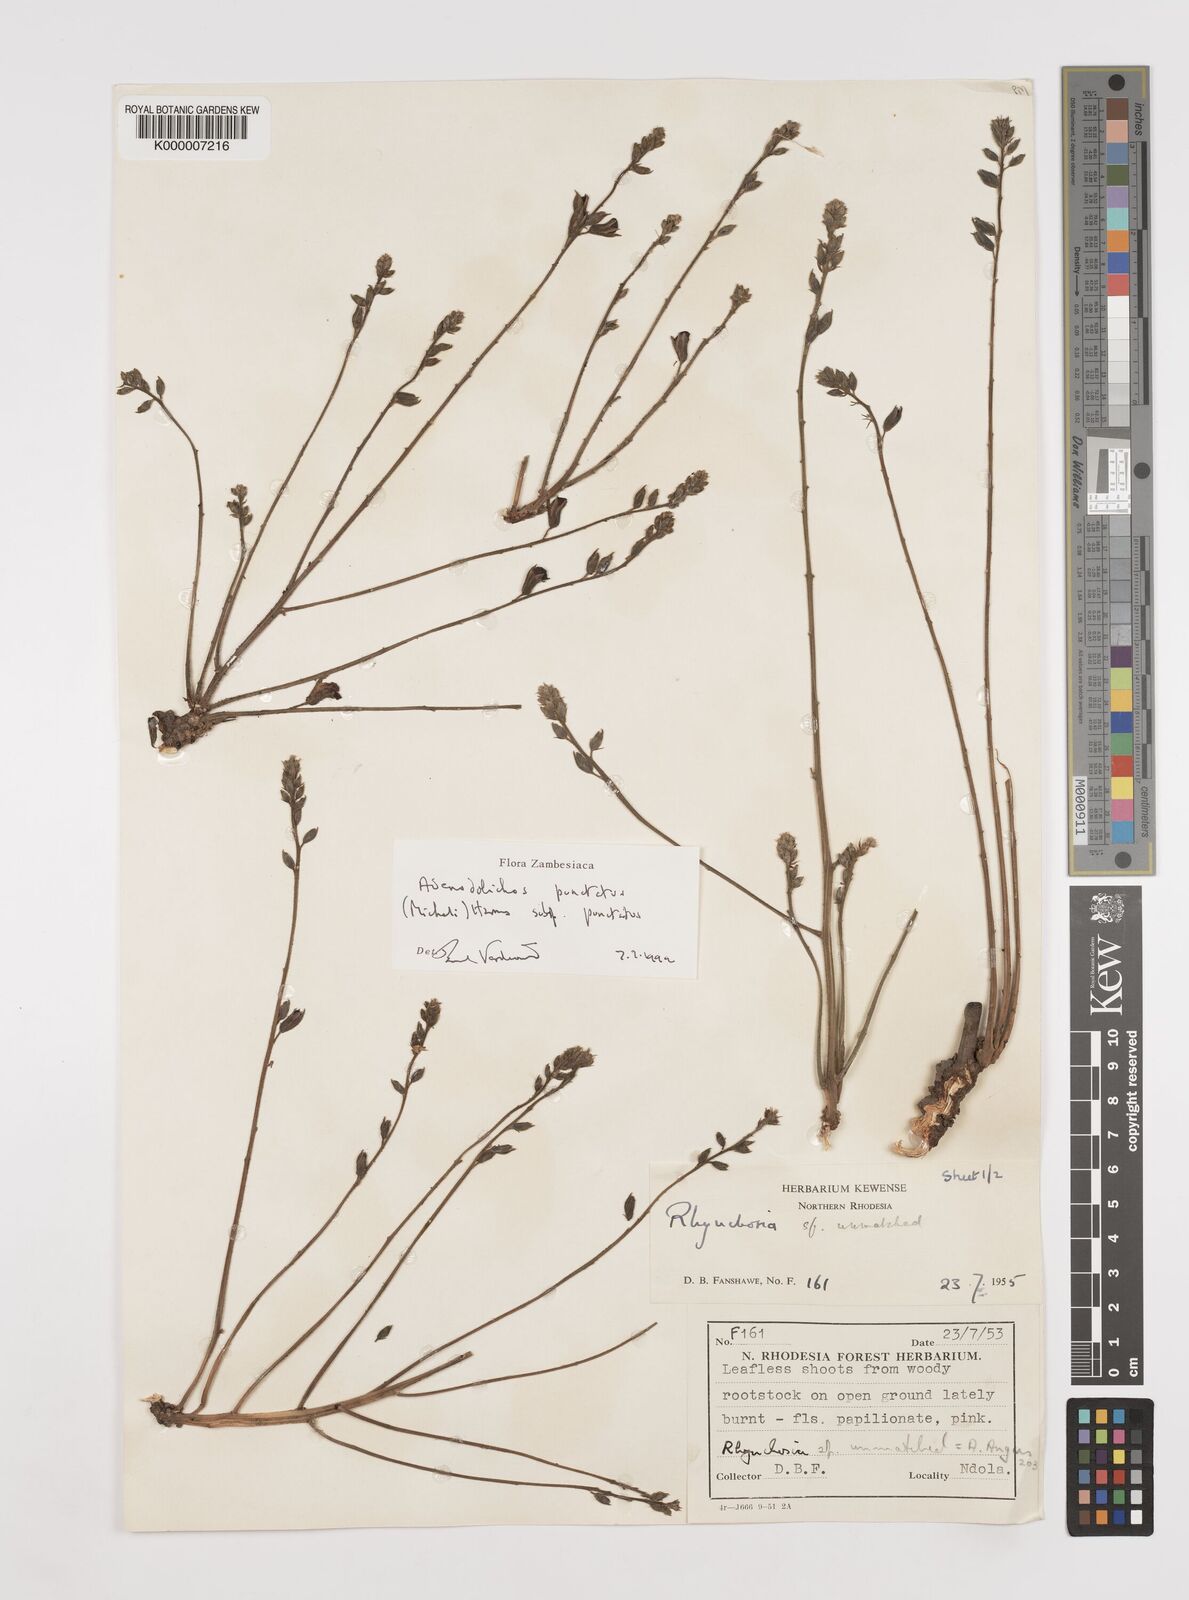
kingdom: Plantae
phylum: Tracheophyta
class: Magnoliopsida
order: Fabales
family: Fabaceae
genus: Adenodolichos
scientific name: Adenodolichos punctatus
